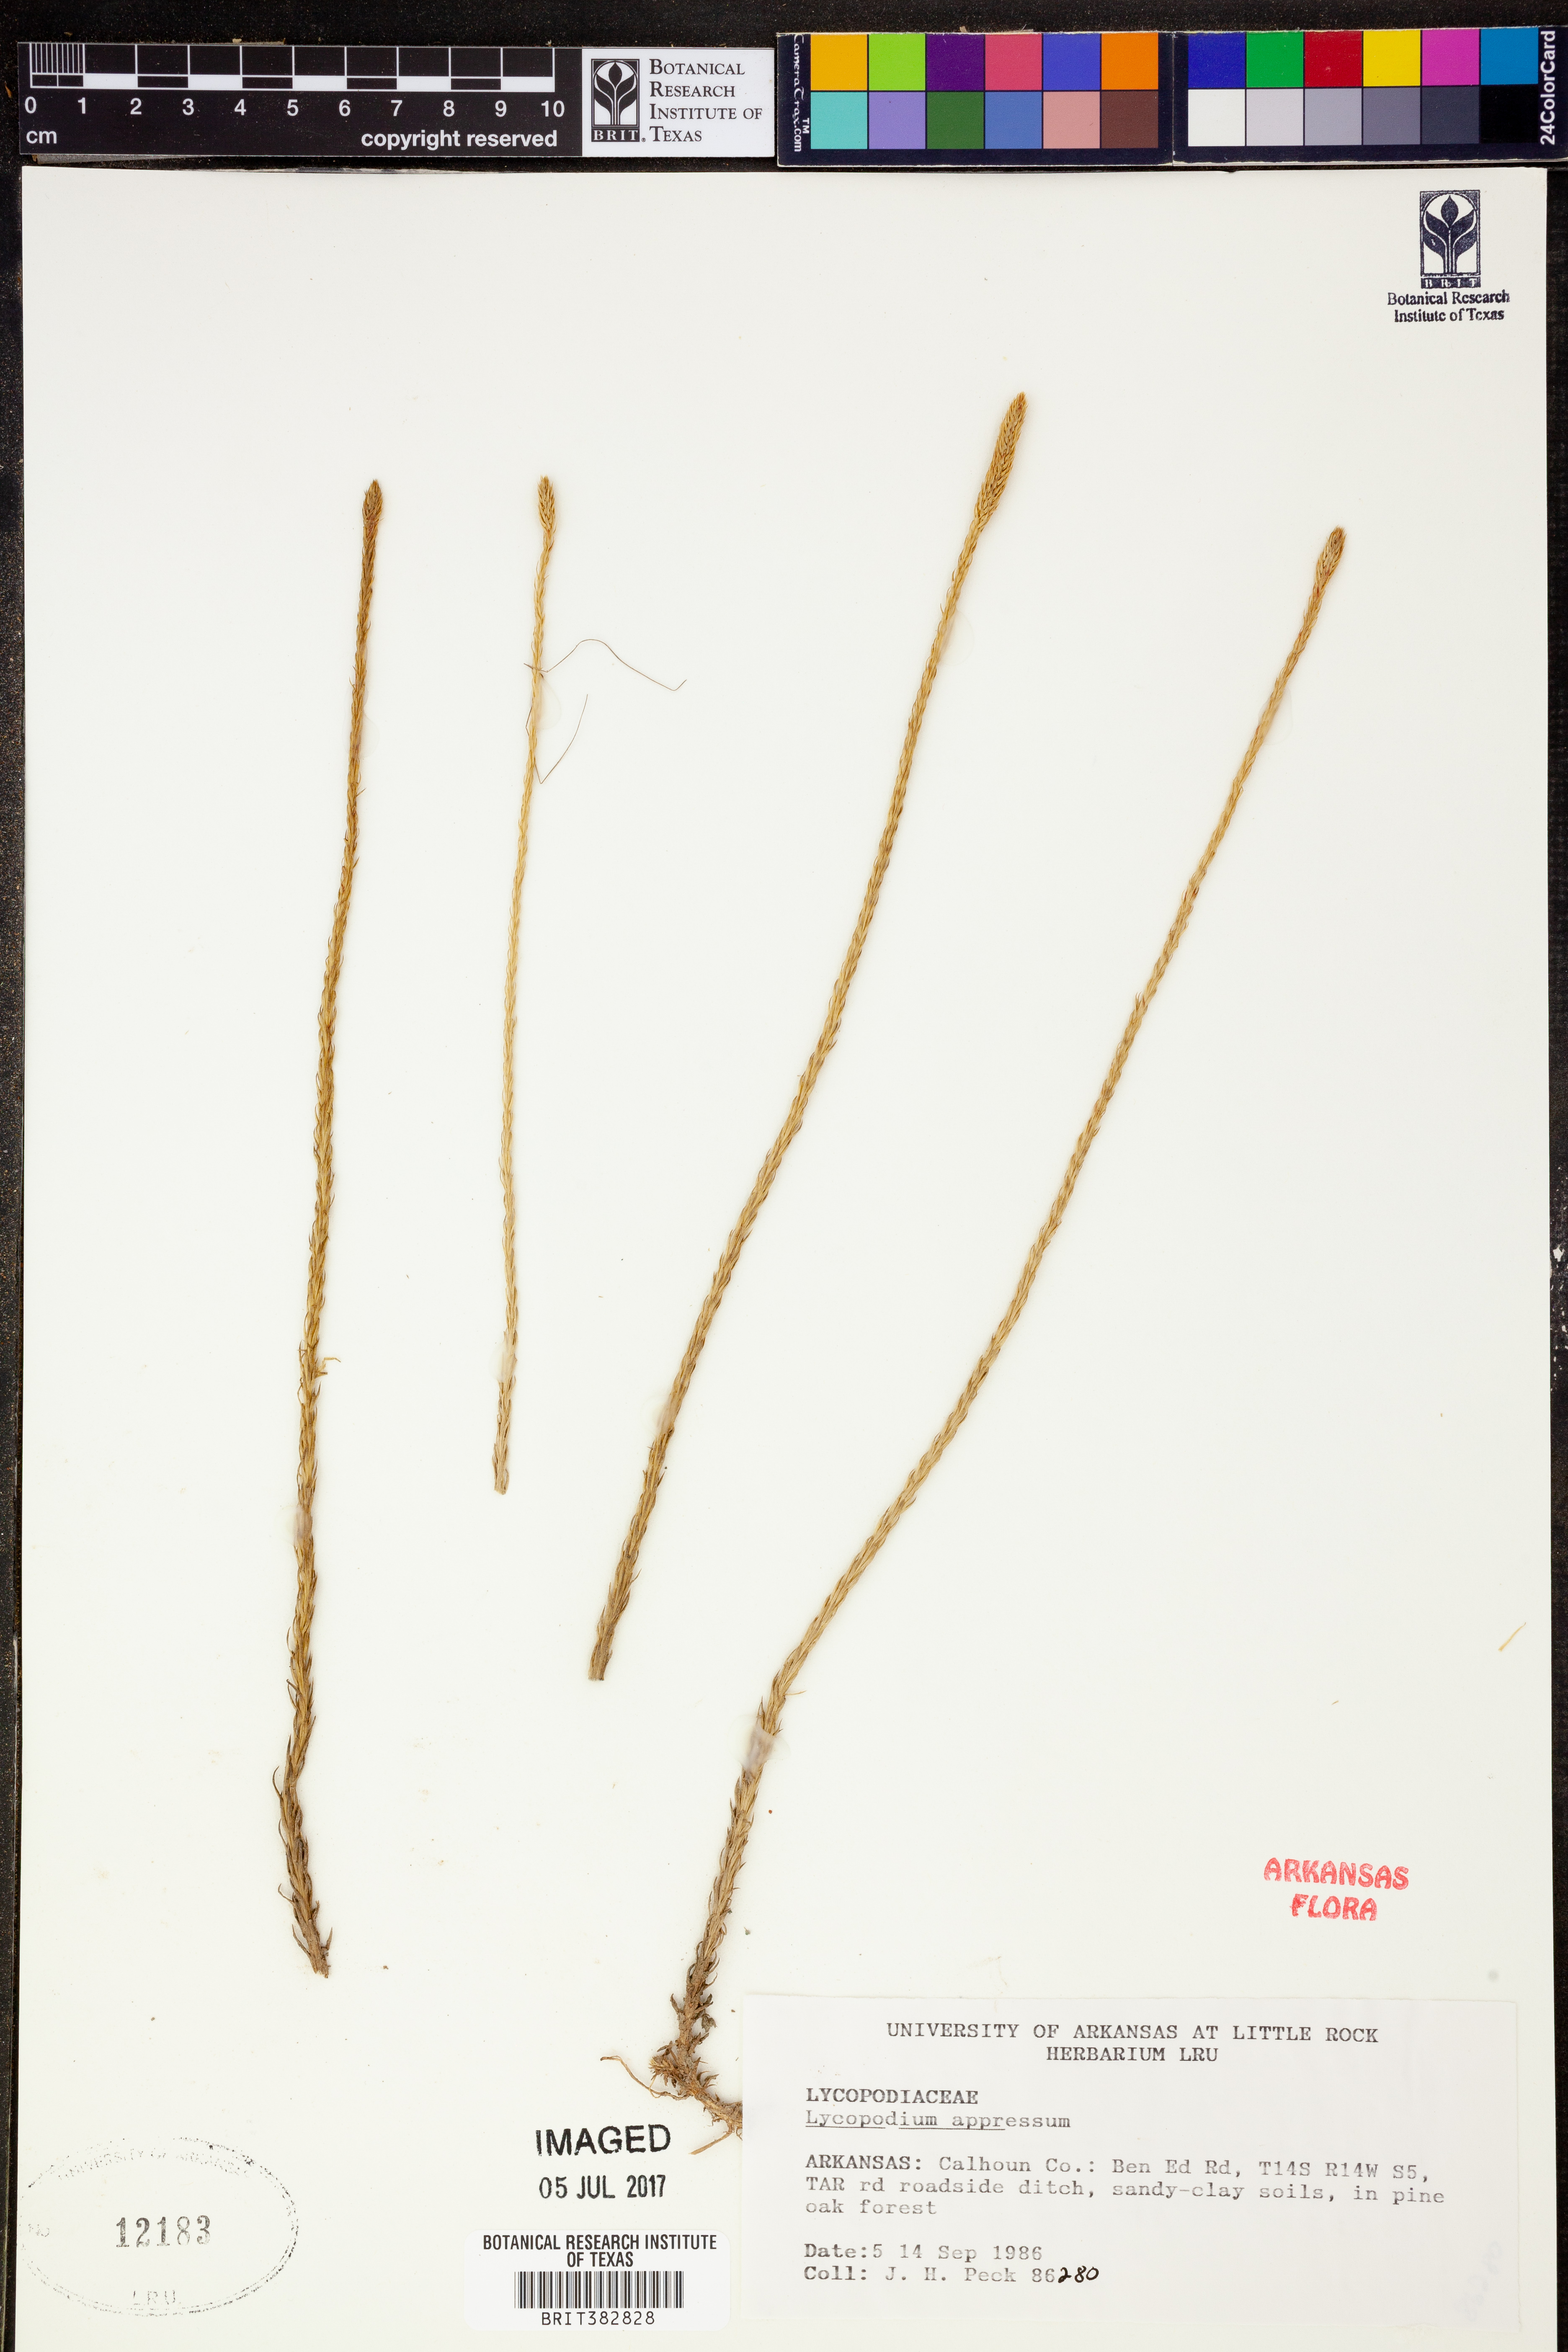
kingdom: Plantae
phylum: Tracheophyta
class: Lycopodiopsida
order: Lycopodiales
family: Lycopodiaceae
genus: Lycopodiella
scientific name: Lycopodiella appressa
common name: Appressed bog clubmoss
